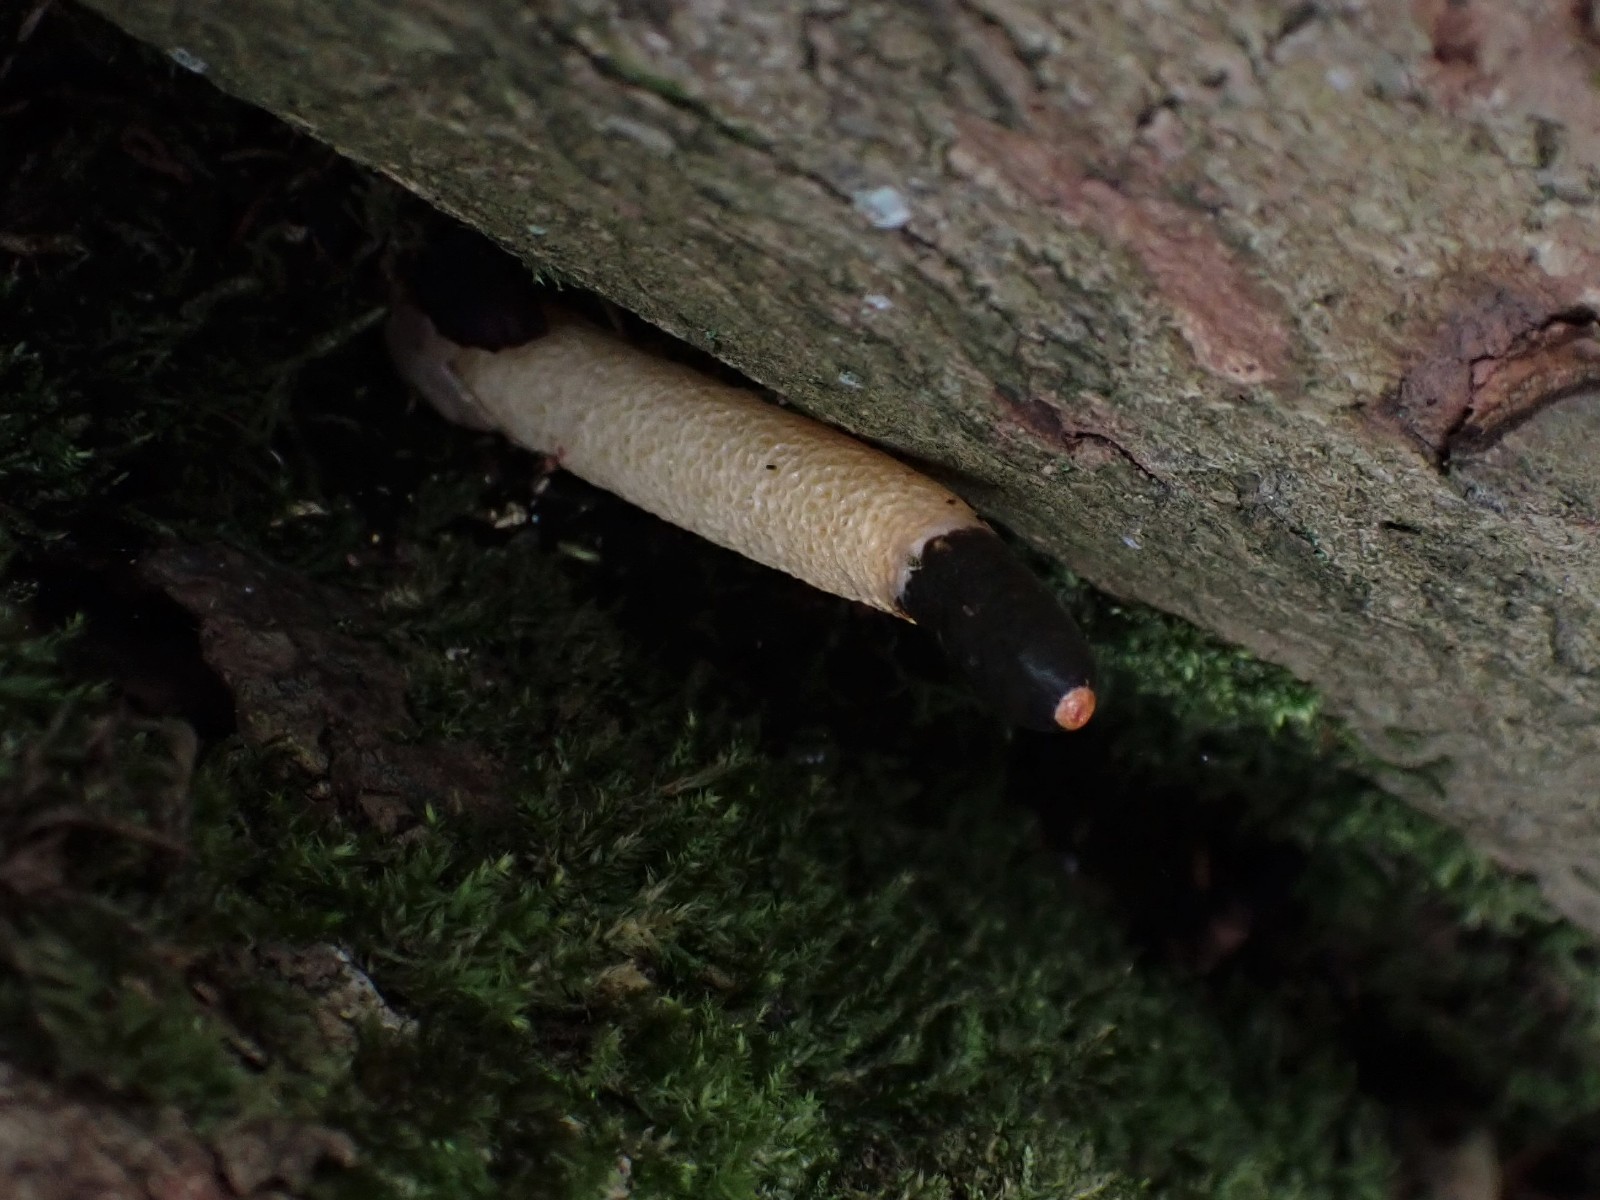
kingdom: Fungi
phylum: Basidiomycota
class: Agaricomycetes
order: Phallales
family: Phallaceae
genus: Mutinus
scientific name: Mutinus caninus
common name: hunde-stinksvamp
